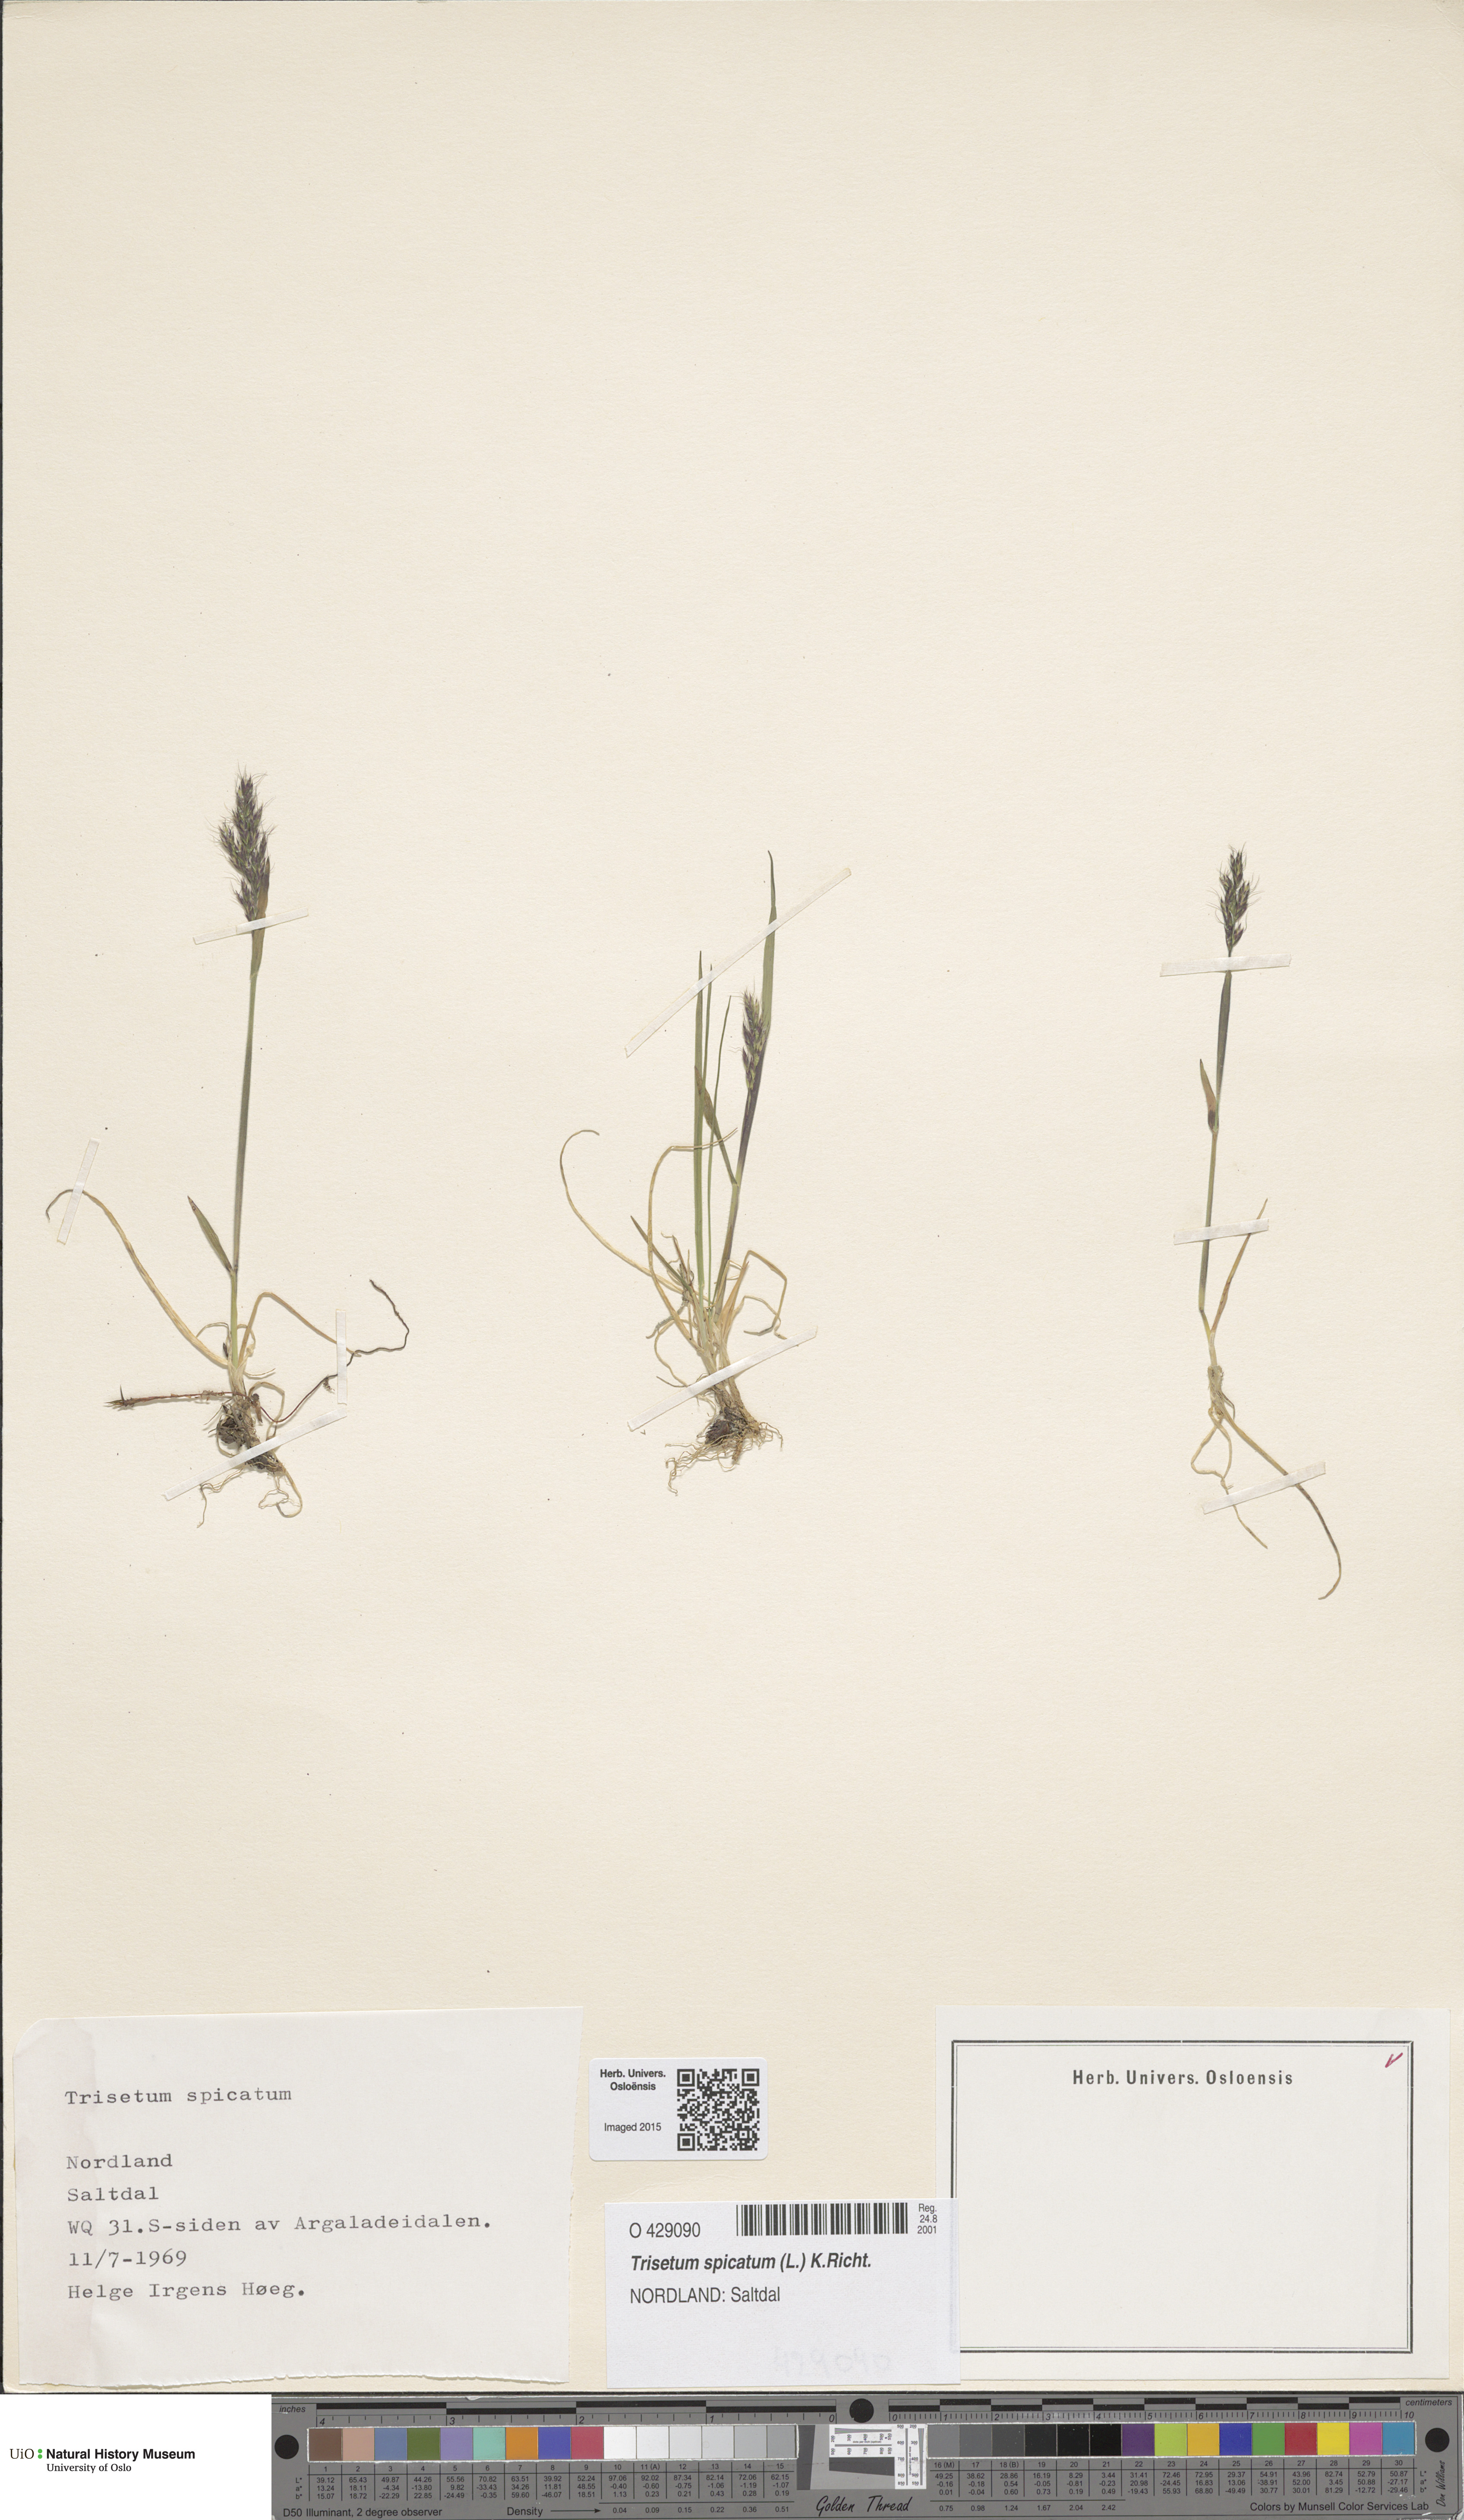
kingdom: Plantae
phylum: Tracheophyta
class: Liliopsida
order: Poales
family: Poaceae
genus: Koeleria
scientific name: Koeleria spicata
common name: Mountain trisetum
